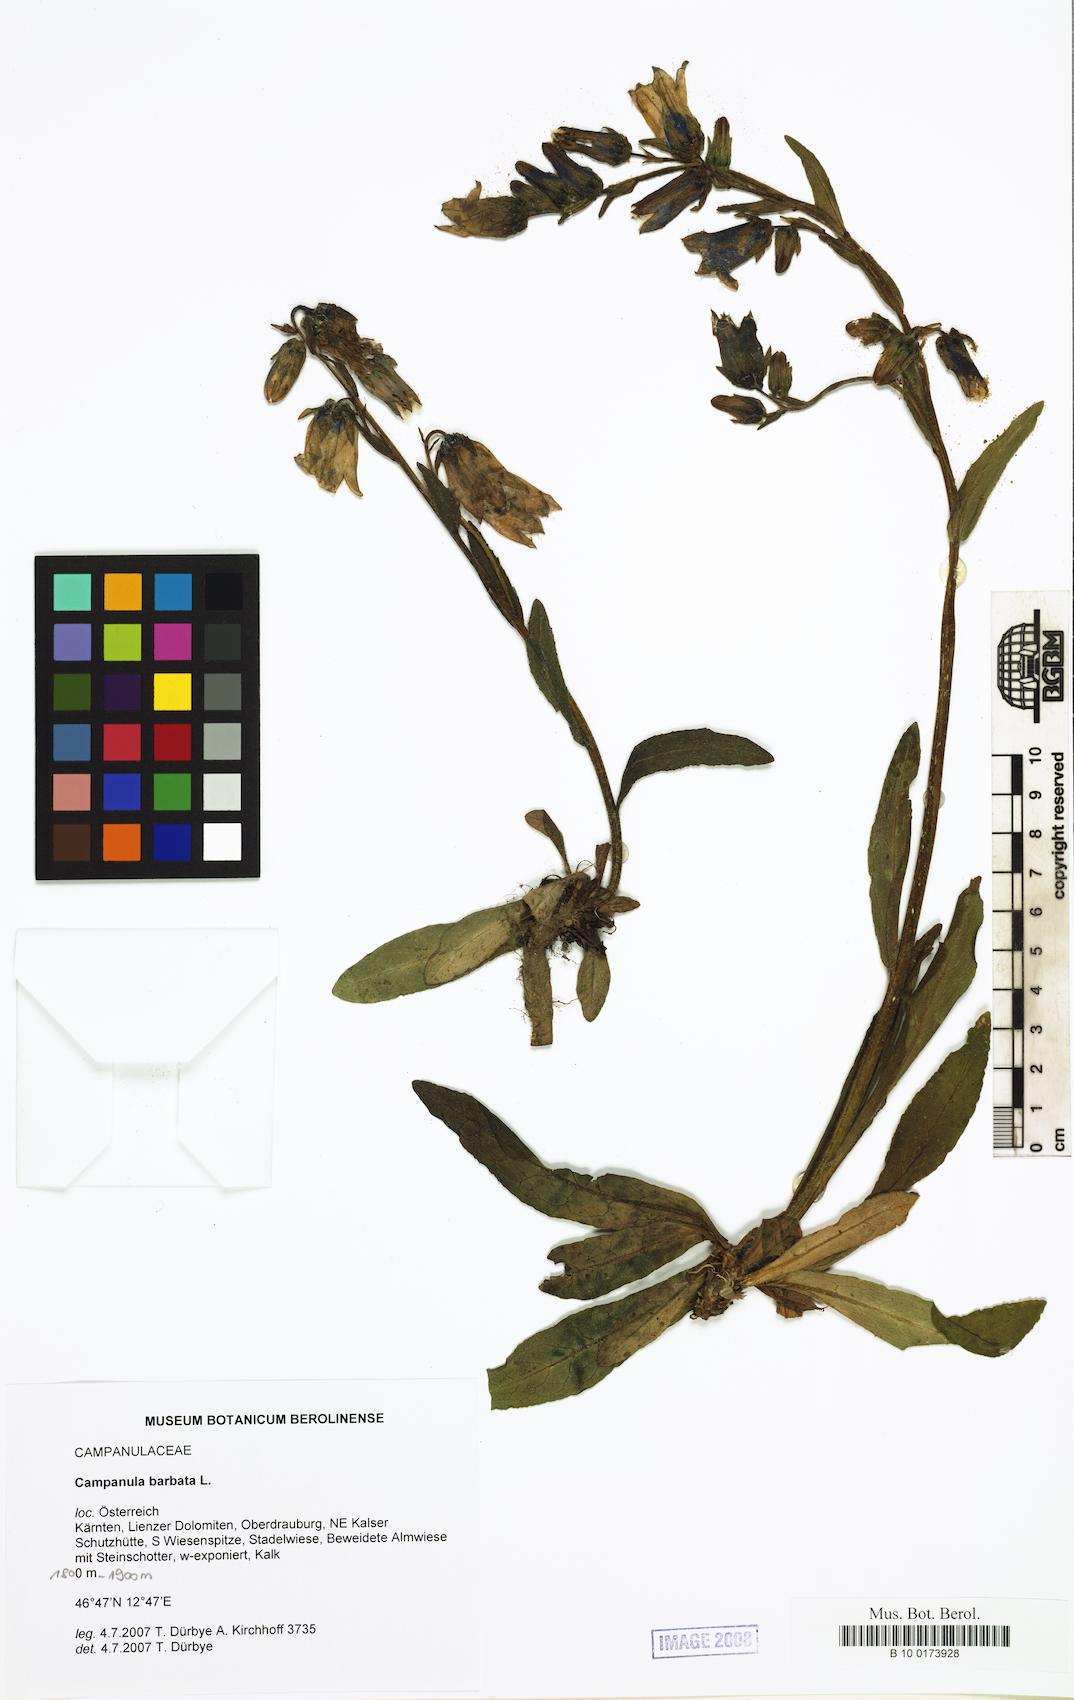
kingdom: Plantae
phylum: Tracheophyta
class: Magnoliopsida
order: Asterales
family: Campanulaceae
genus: Campanula
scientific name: Campanula barbata
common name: Bearded bellflower
